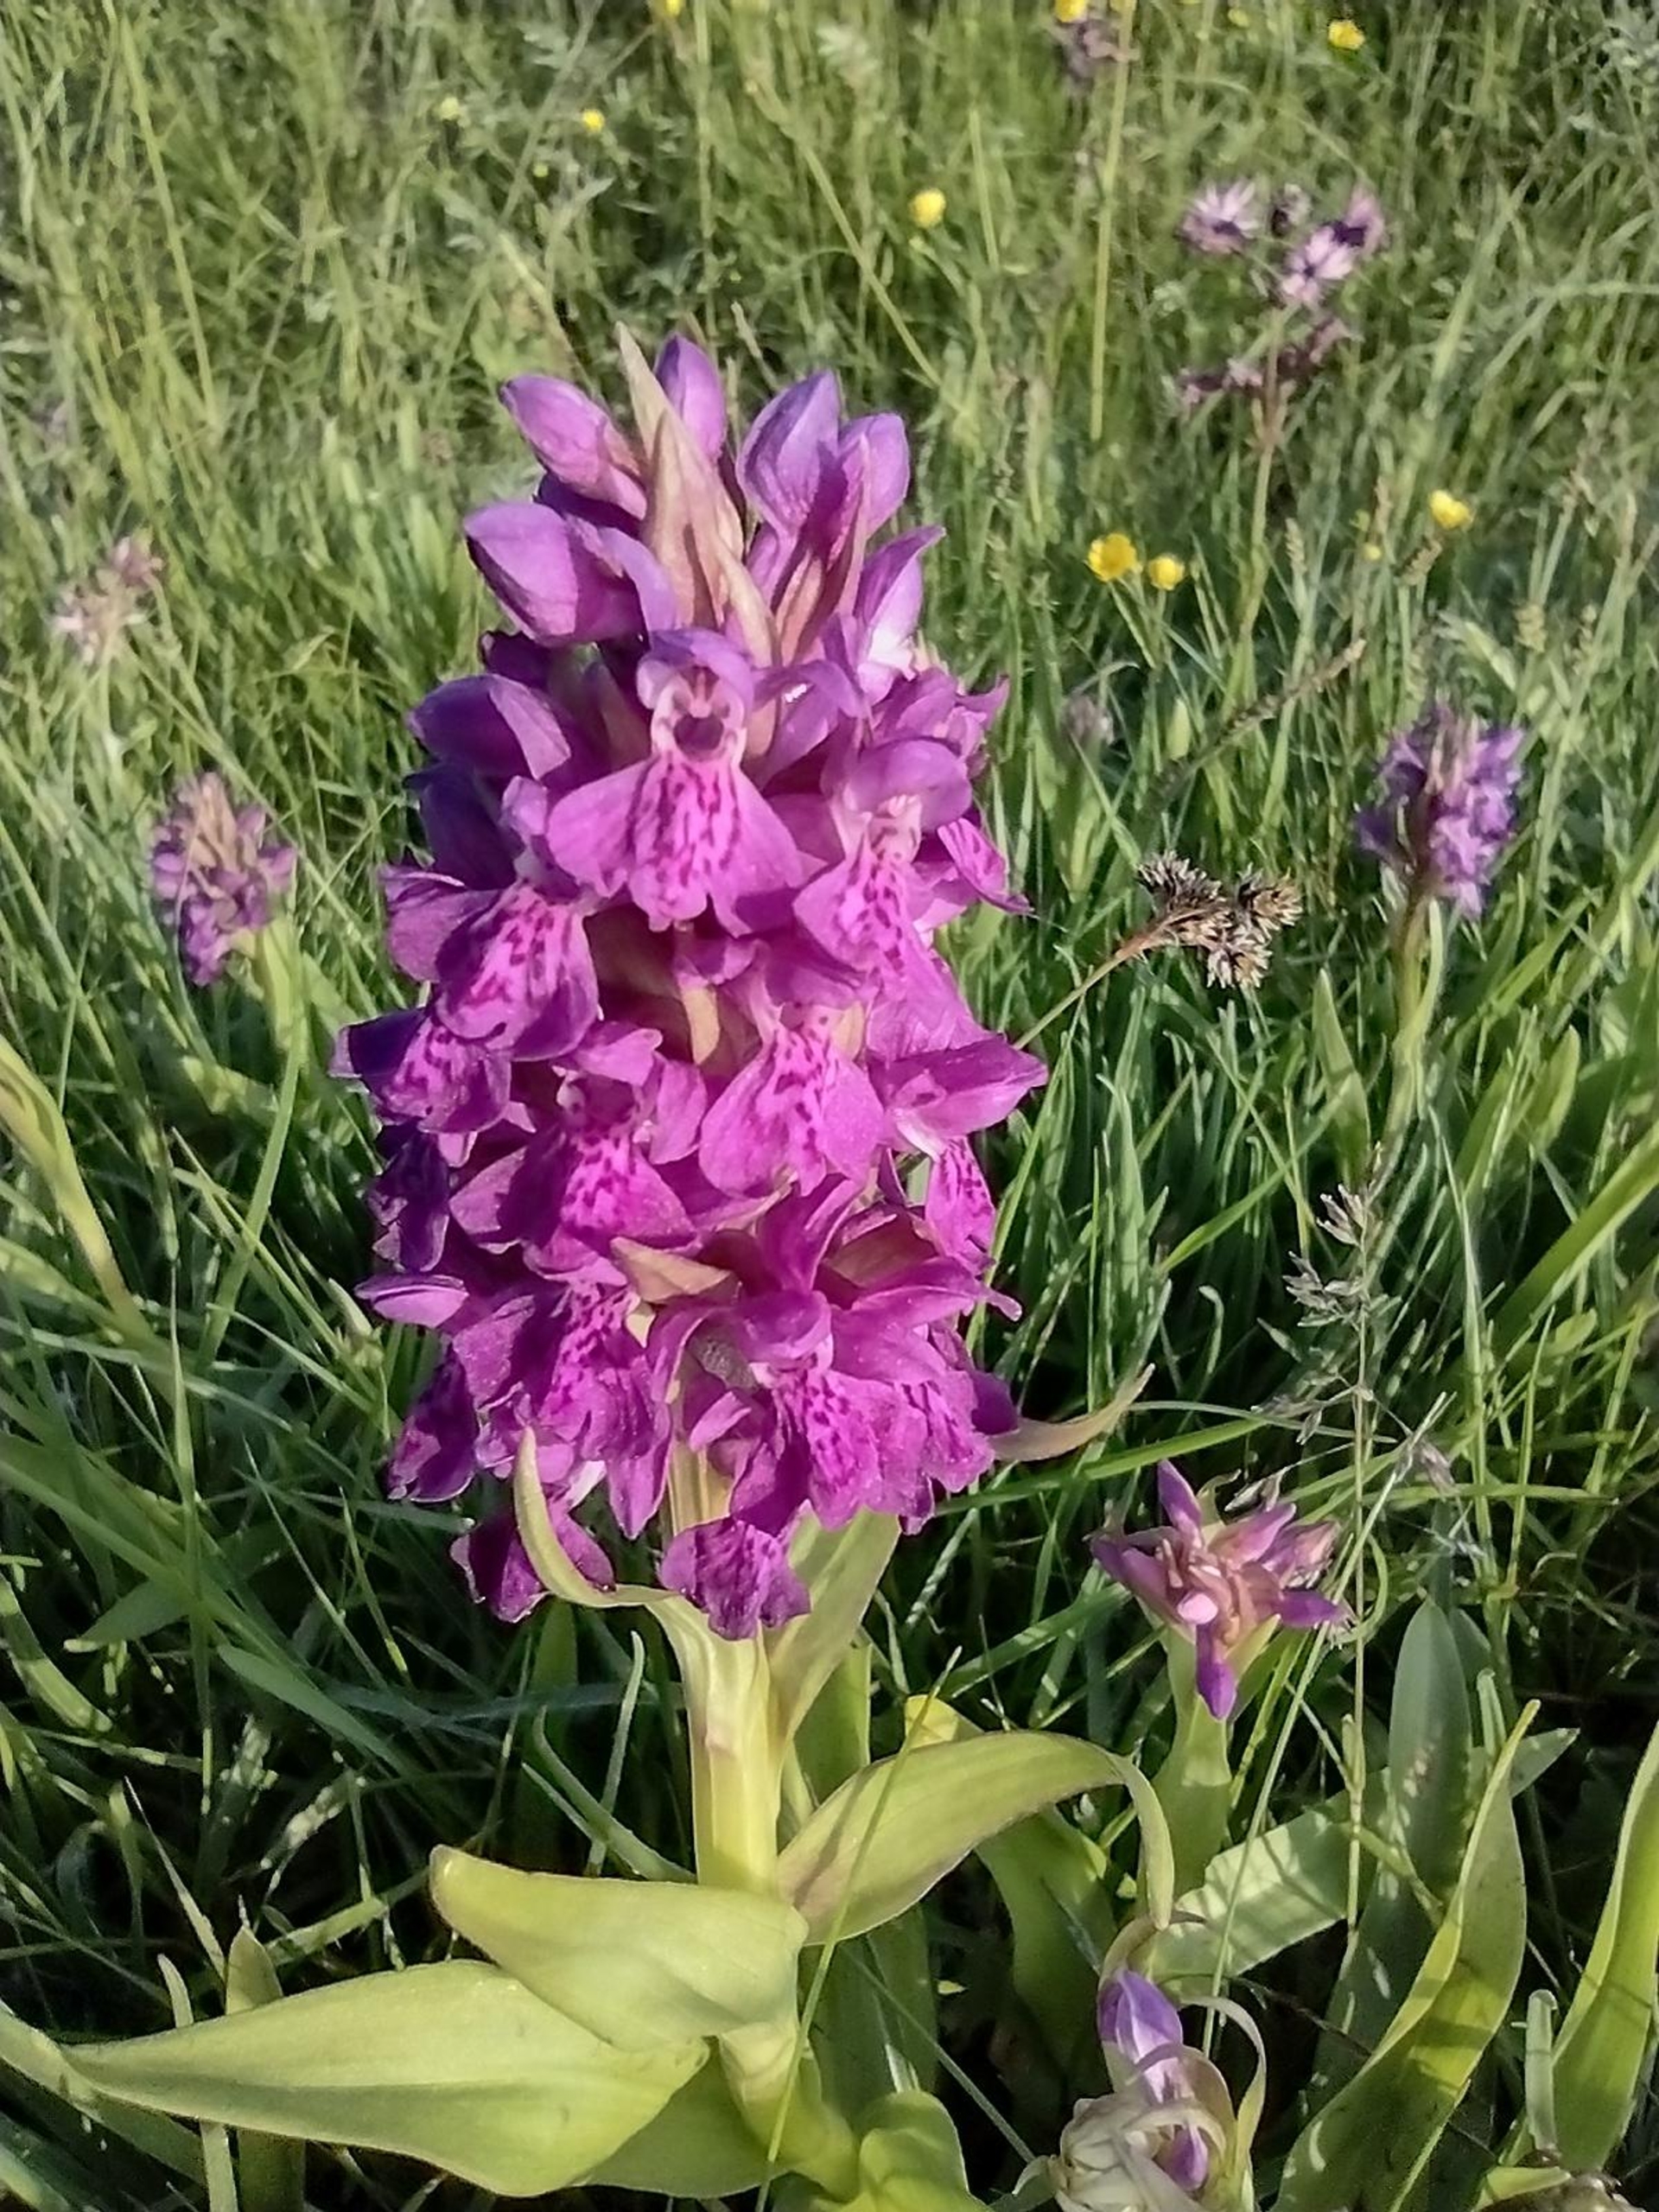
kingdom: Plantae
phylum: Tracheophyta
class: Liliopsida
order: Asparagales
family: Orchidaceae
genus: Dactylorhiza
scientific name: Dactylorhiza majalis
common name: Purpur-gøgeurt
